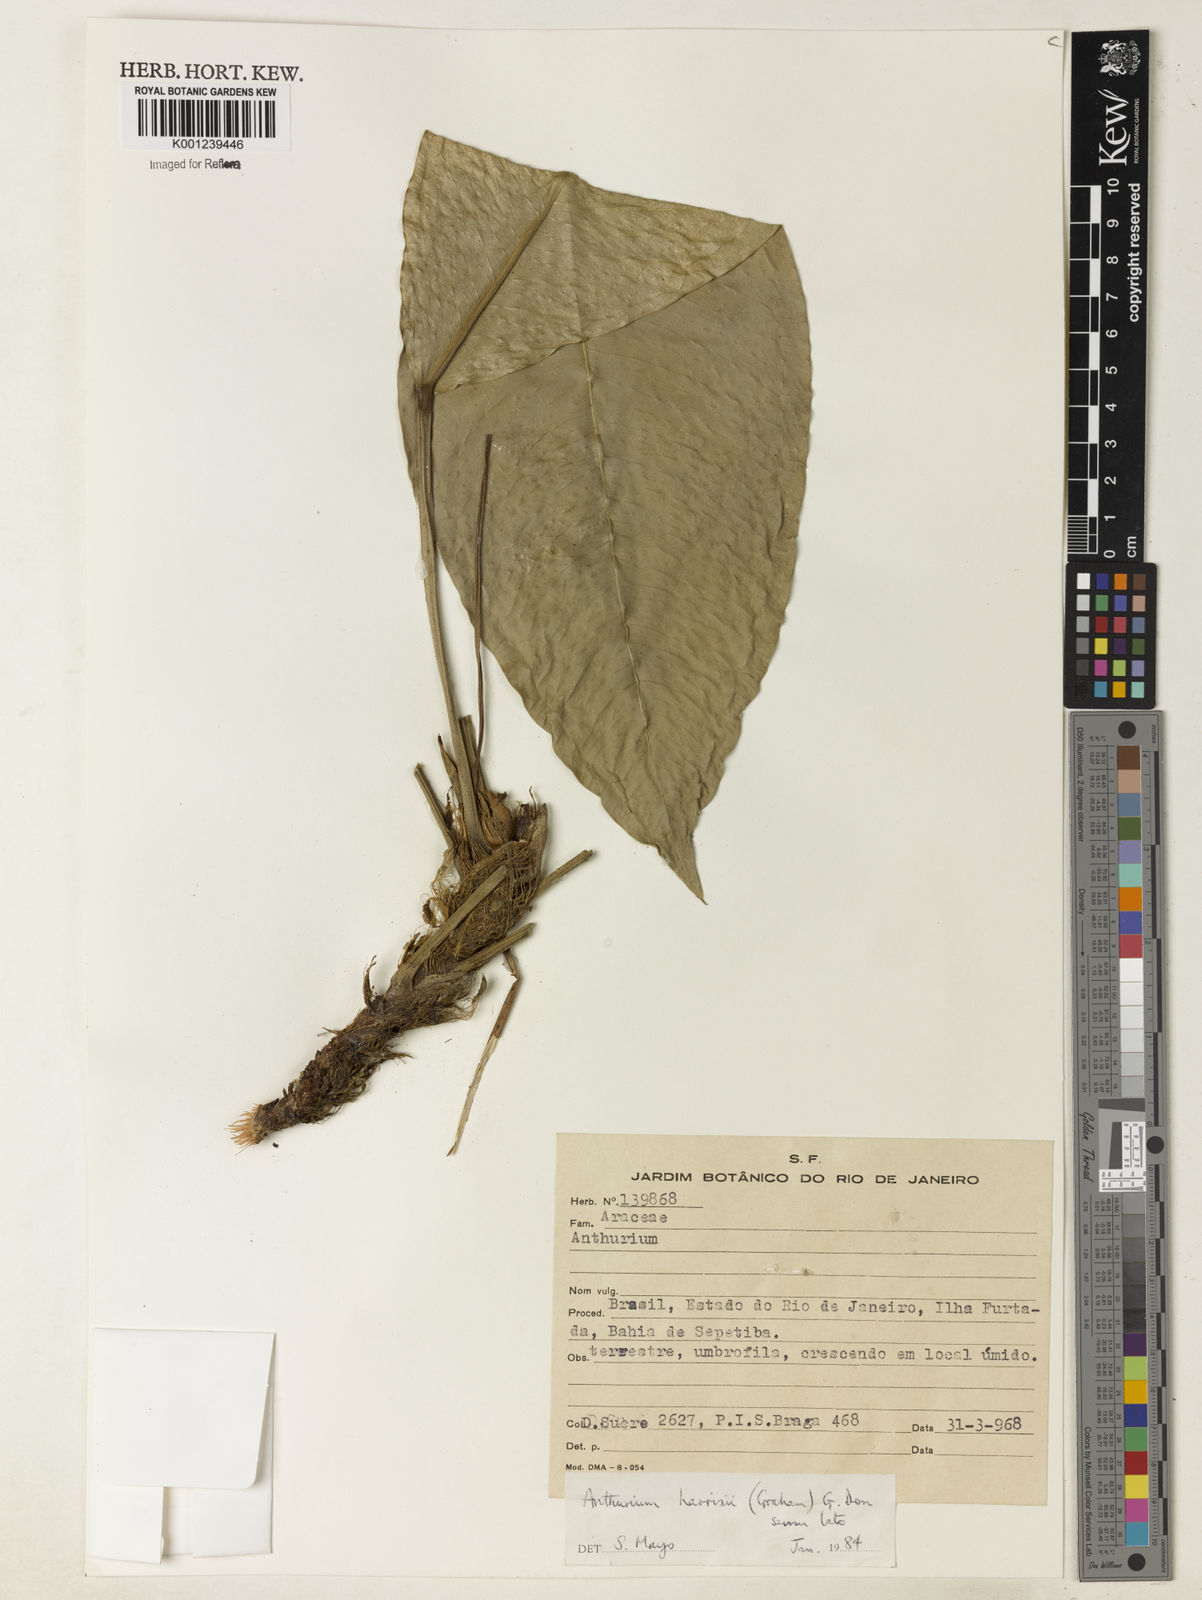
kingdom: Plantae
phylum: Tracheophyta
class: Liliopsida
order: Alismatales
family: Araceae
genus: Anthurium
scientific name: Anthurium harrisii
